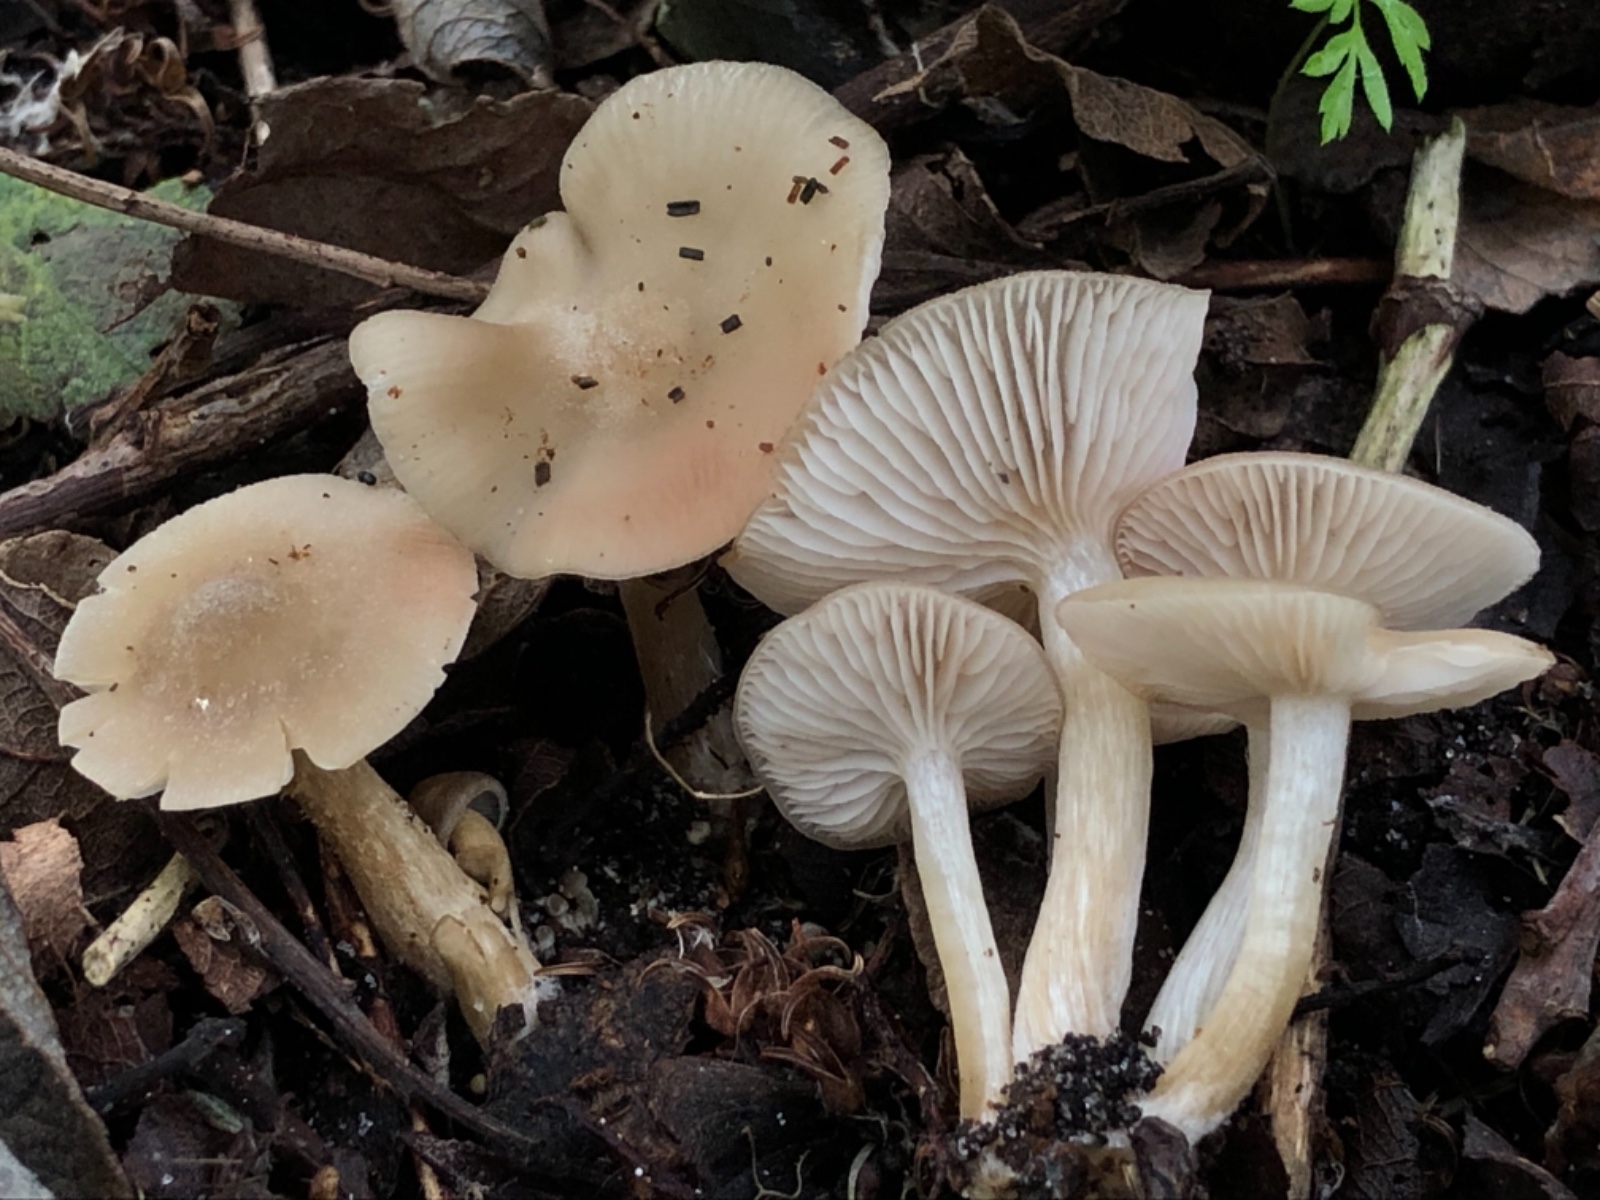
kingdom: Fungi
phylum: Basidiomycota
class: Agaricomycetes
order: Agaricales
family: Entolomataceae
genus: Entoloma
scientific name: Entoloma sericatum
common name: rank rødblad
